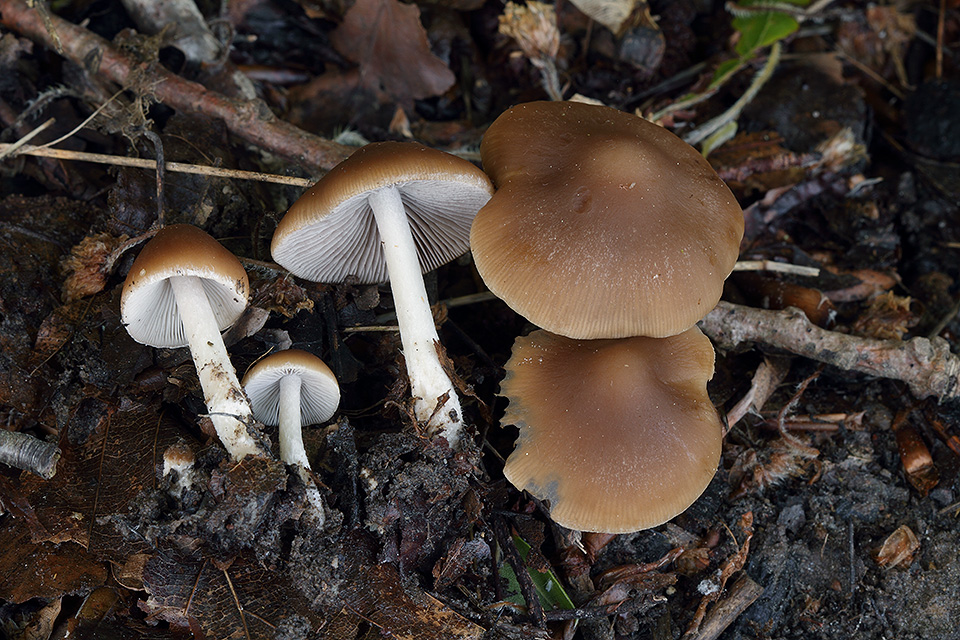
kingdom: Fungi
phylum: Basidiomycota
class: Agaricomycetes
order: Agaricales
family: Psathyrellaceae
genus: Psathyrella
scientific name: Psathyrella spadiceogrisea
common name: gråbrun mørkhat
